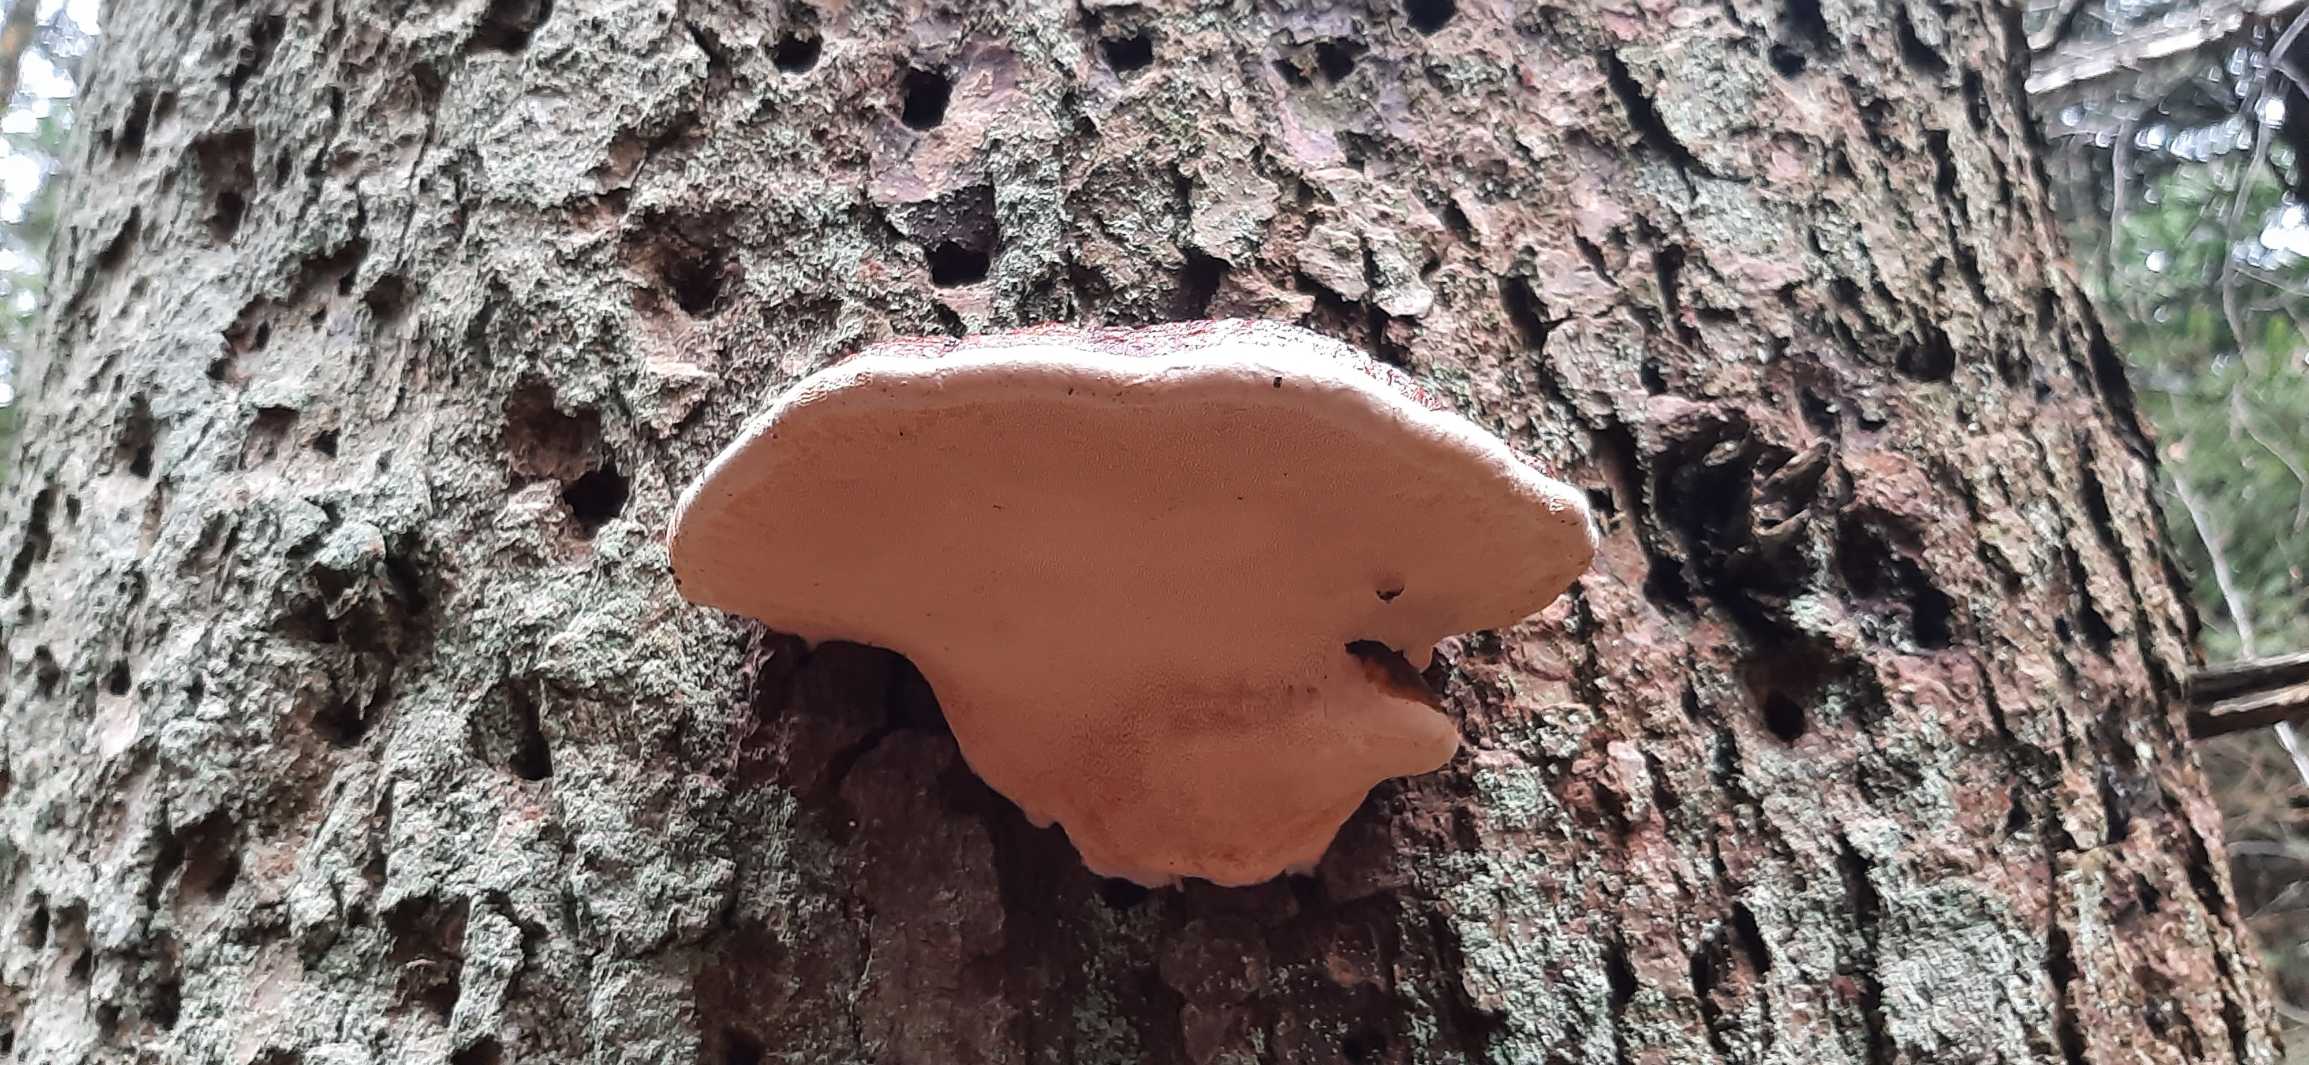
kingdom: Fungi
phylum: Basidiomycota
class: Agaricomycetes
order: Polyporales
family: Fomitopsidaceae
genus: Fomitopsis
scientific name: Fomitopsis pinicola
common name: Randbæltet hovporesvamp
